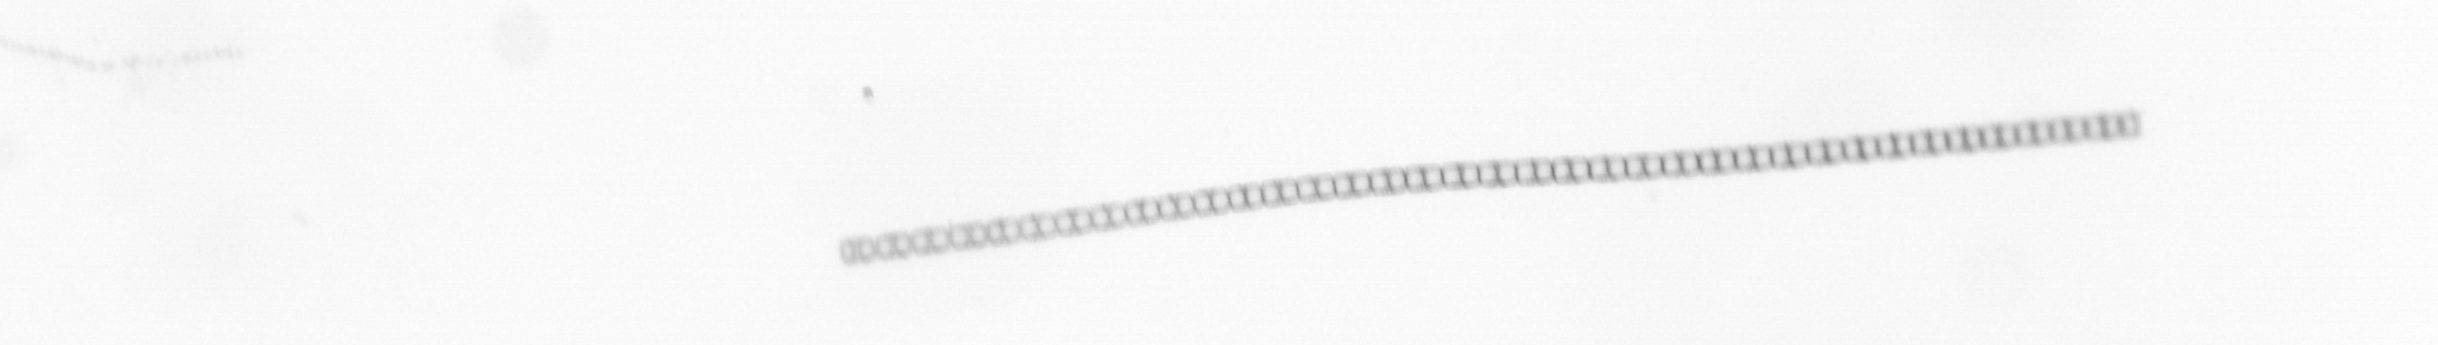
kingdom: Chromista
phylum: Ochrophyta
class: Bacillariophyceae
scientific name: Bacillariophyceae
